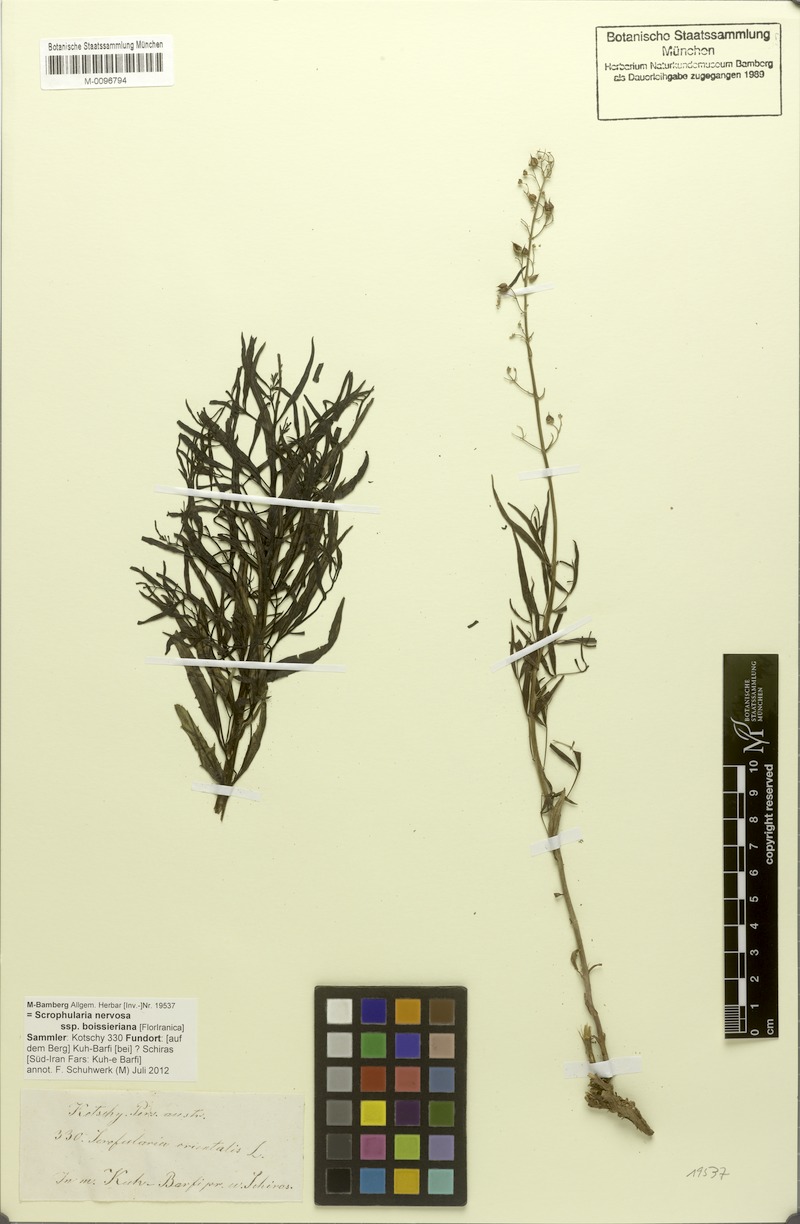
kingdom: Plantae
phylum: Tracheophyta
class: Magnoliopsida
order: Lamiales
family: Scrophulariaceae
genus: Scrophularia
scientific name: Scrophularia nervosa
